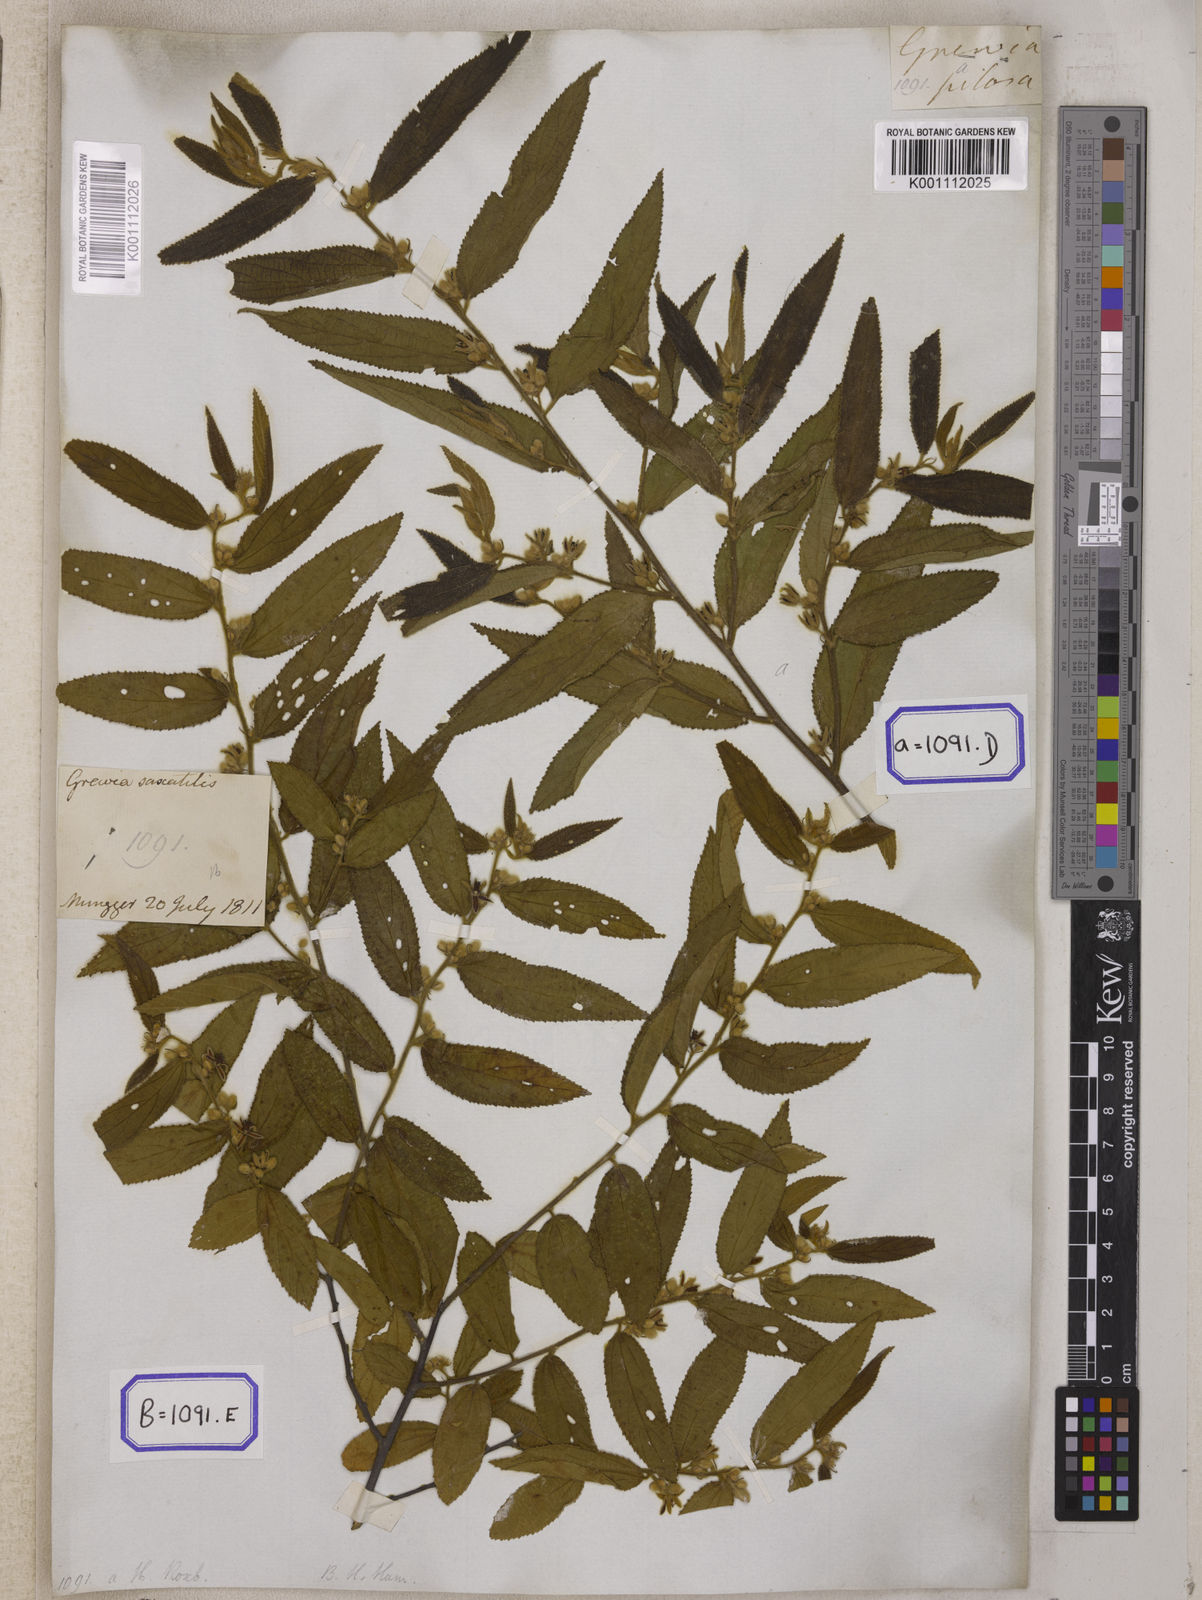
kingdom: Plantae
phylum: Tracheophyta
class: Magnoliopsida
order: Malvales
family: Malvaceae
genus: Grewia
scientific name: Grewia excelsa
